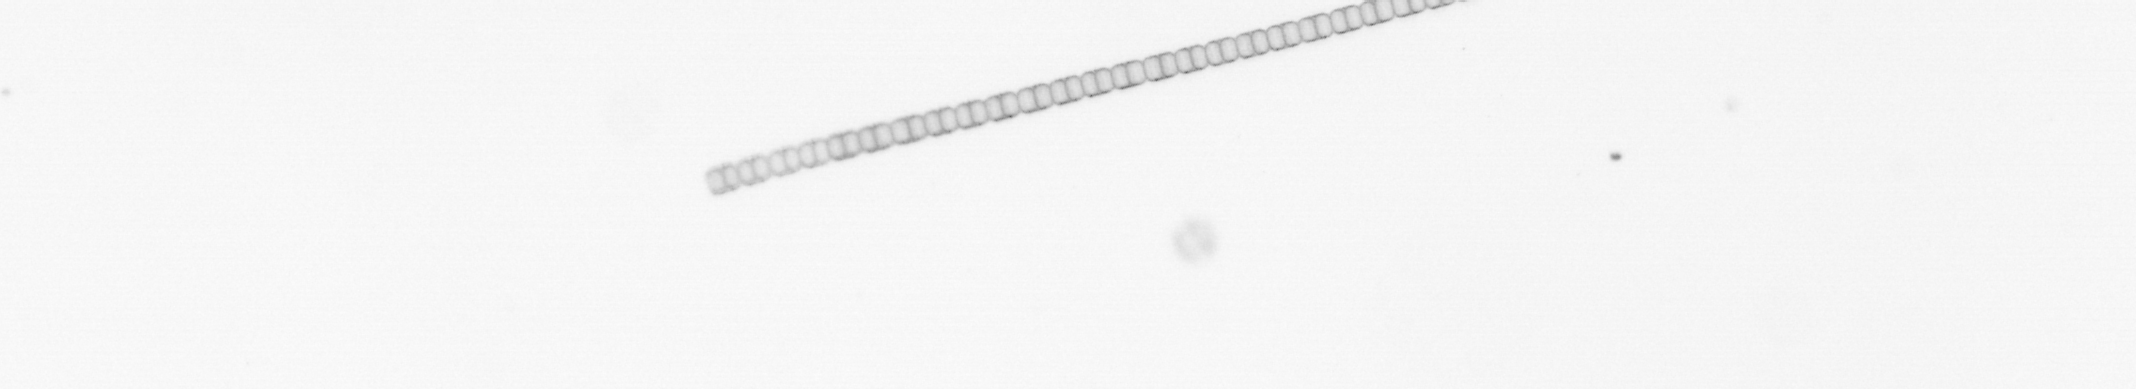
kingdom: Chromista
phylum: Ochrophyta
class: Bacillariophyceae
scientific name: Bacillariophyceae
